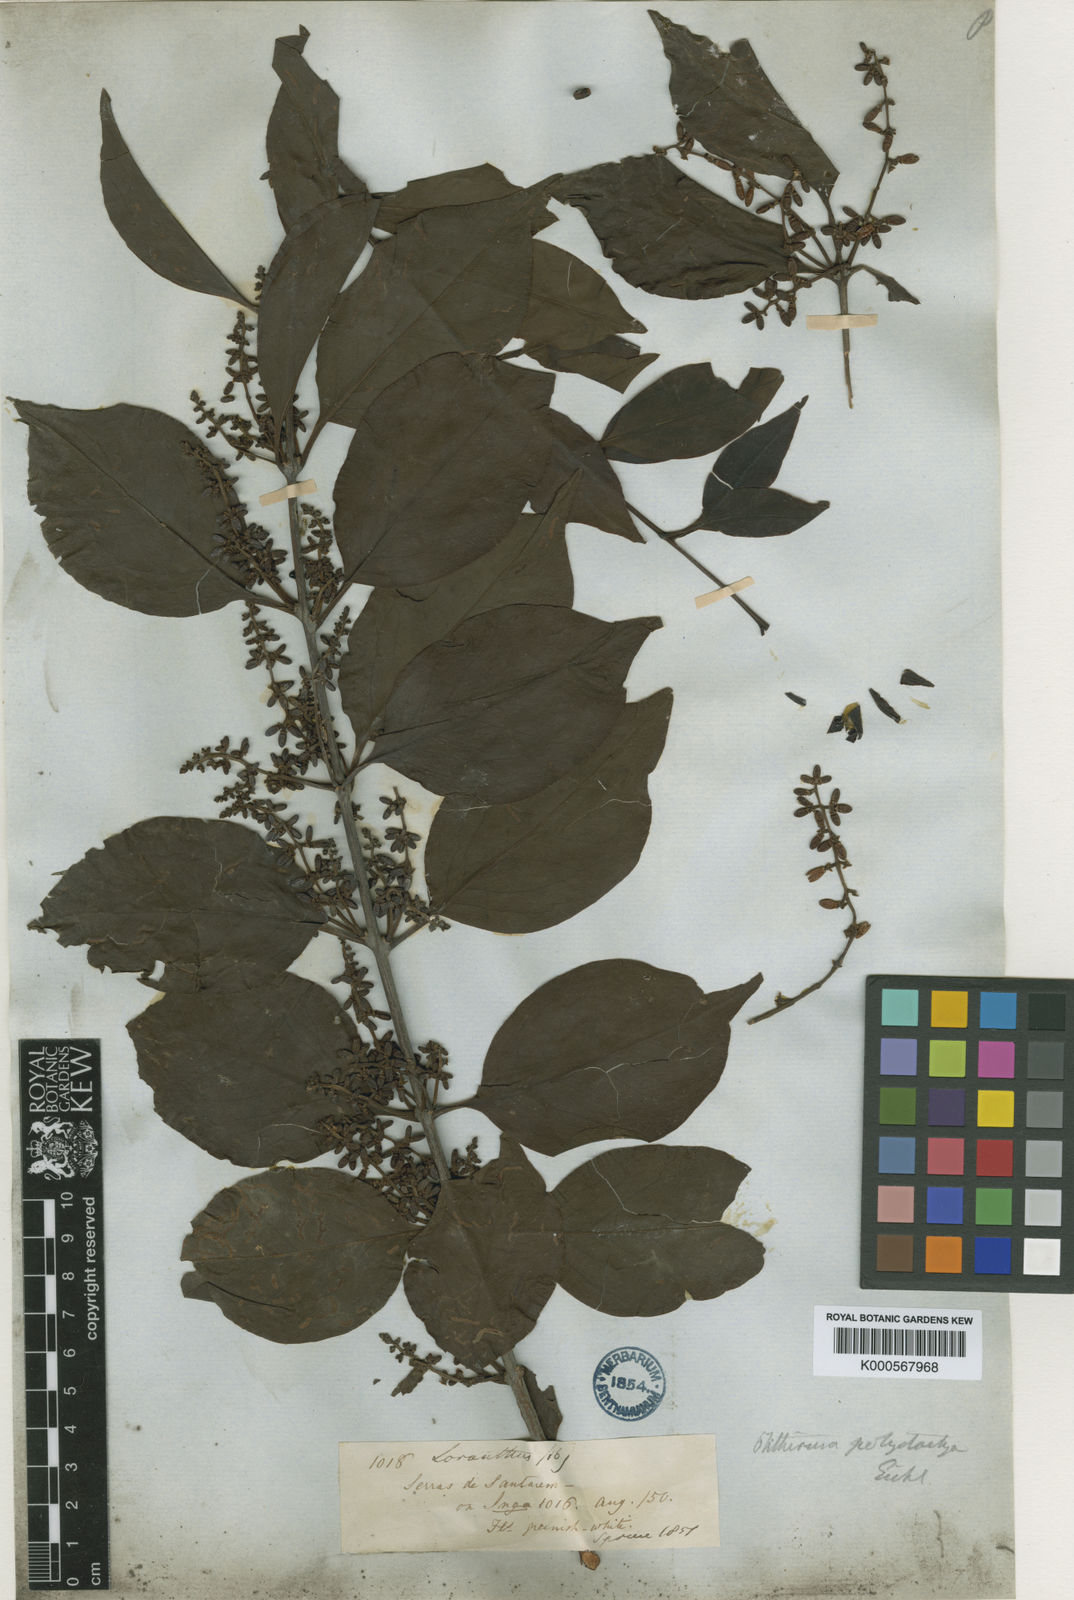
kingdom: Plantae
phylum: Tracheophyta
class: Magnoliopsida
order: Santalales
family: Loranthaceae
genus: Passovia
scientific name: Passovia pedunculata
